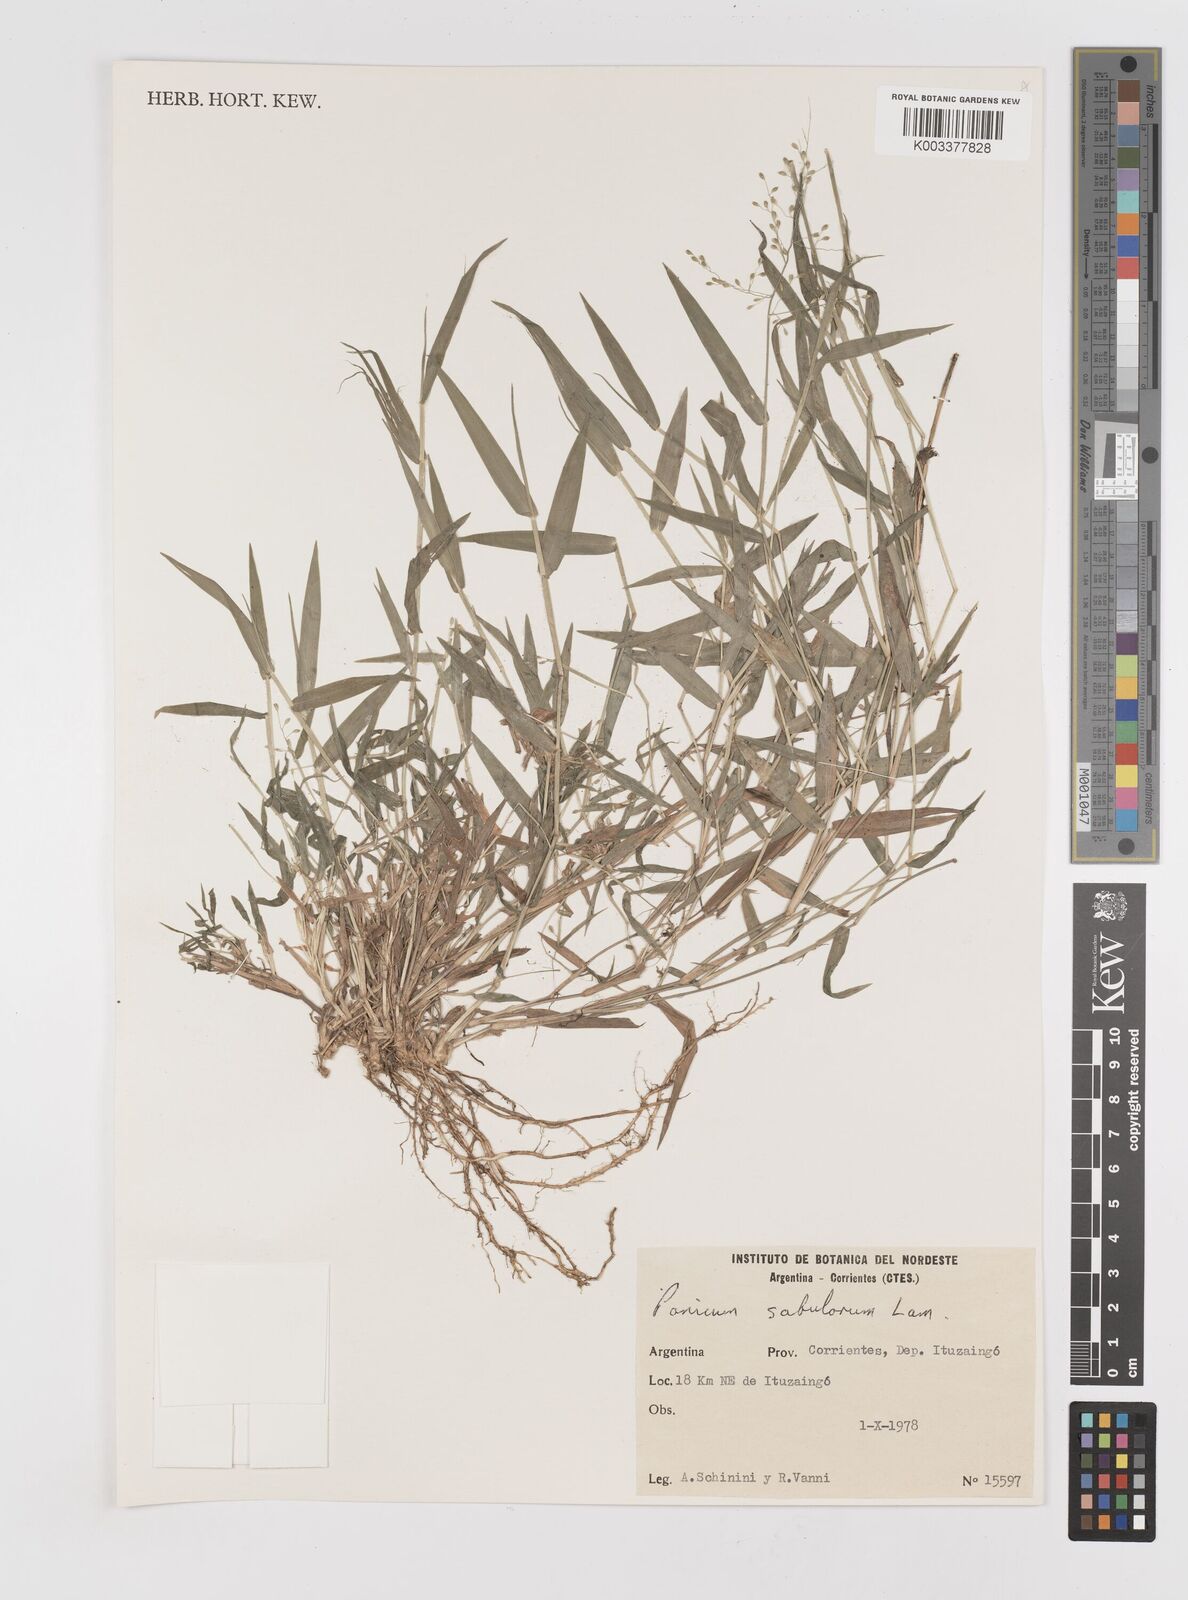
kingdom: Plantae
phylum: Tracheophyta
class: Liliopsida
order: Poales
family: Poaceae
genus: Dichanthelium
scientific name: Dichanthelium sabulorum
